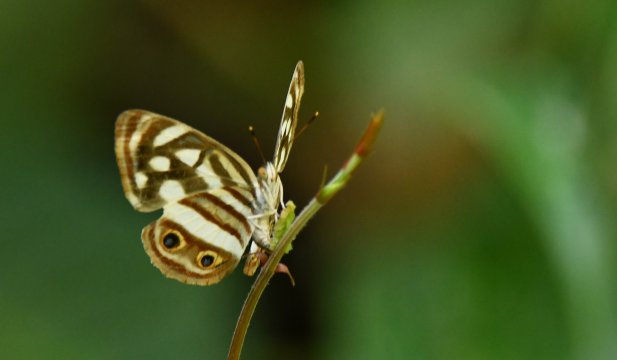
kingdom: Animalia
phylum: Arthropoda
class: Insecta
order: Lepidoptera
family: Nymphalidae
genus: Dynamine
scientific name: Dynamine mylitta
